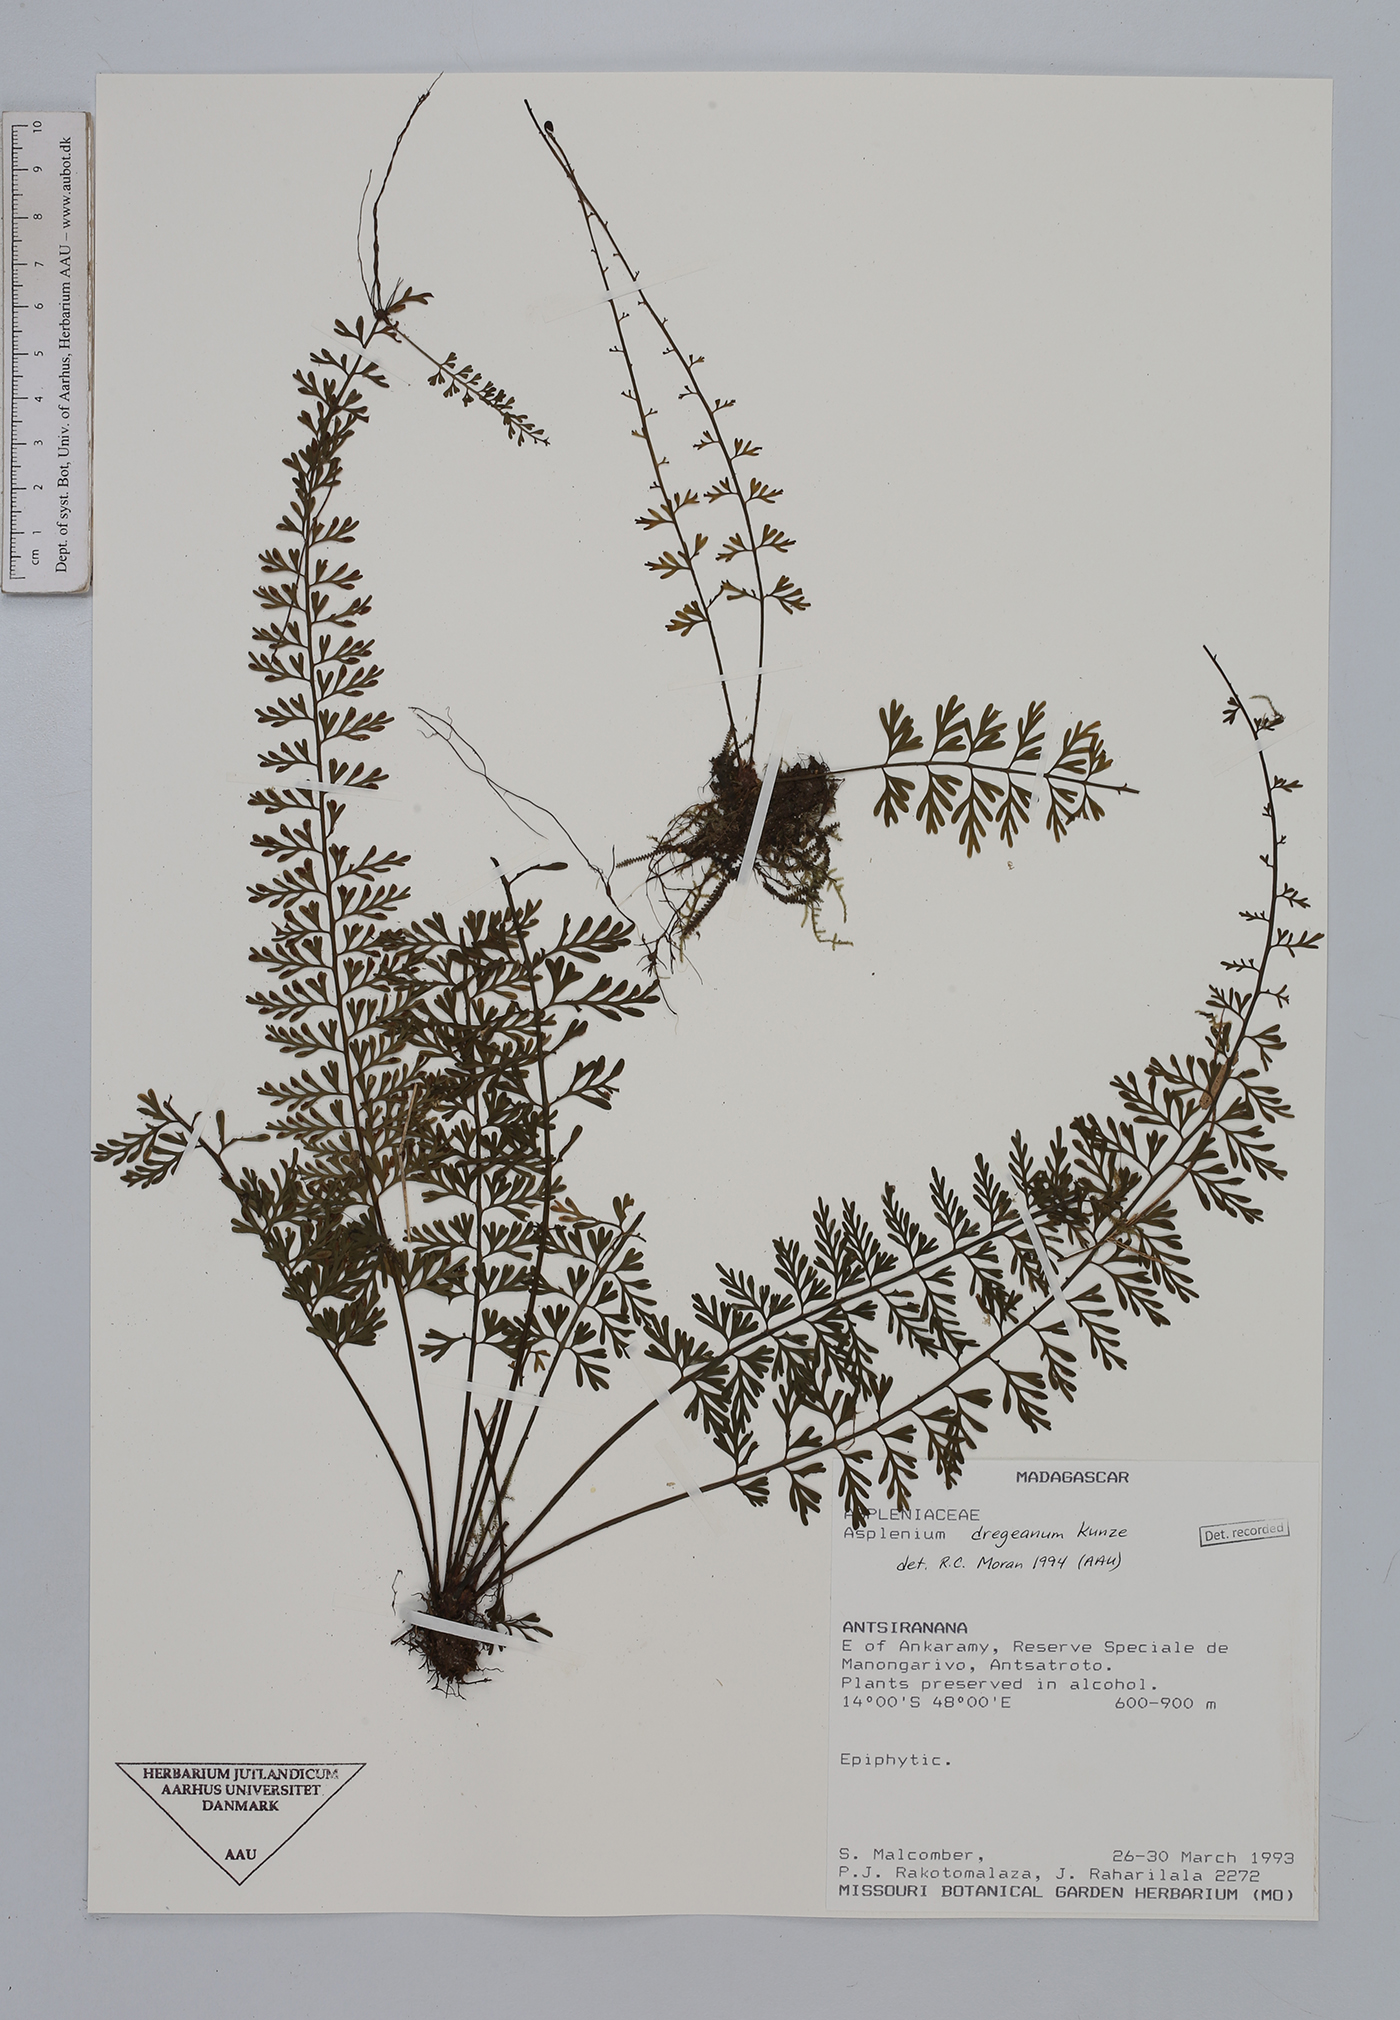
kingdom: Plantae
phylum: Tracheophyta
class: Polypodiopsida
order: Polypodiales
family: Aspleniaceae
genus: Asplenium
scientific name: Asplenium dregeanum
